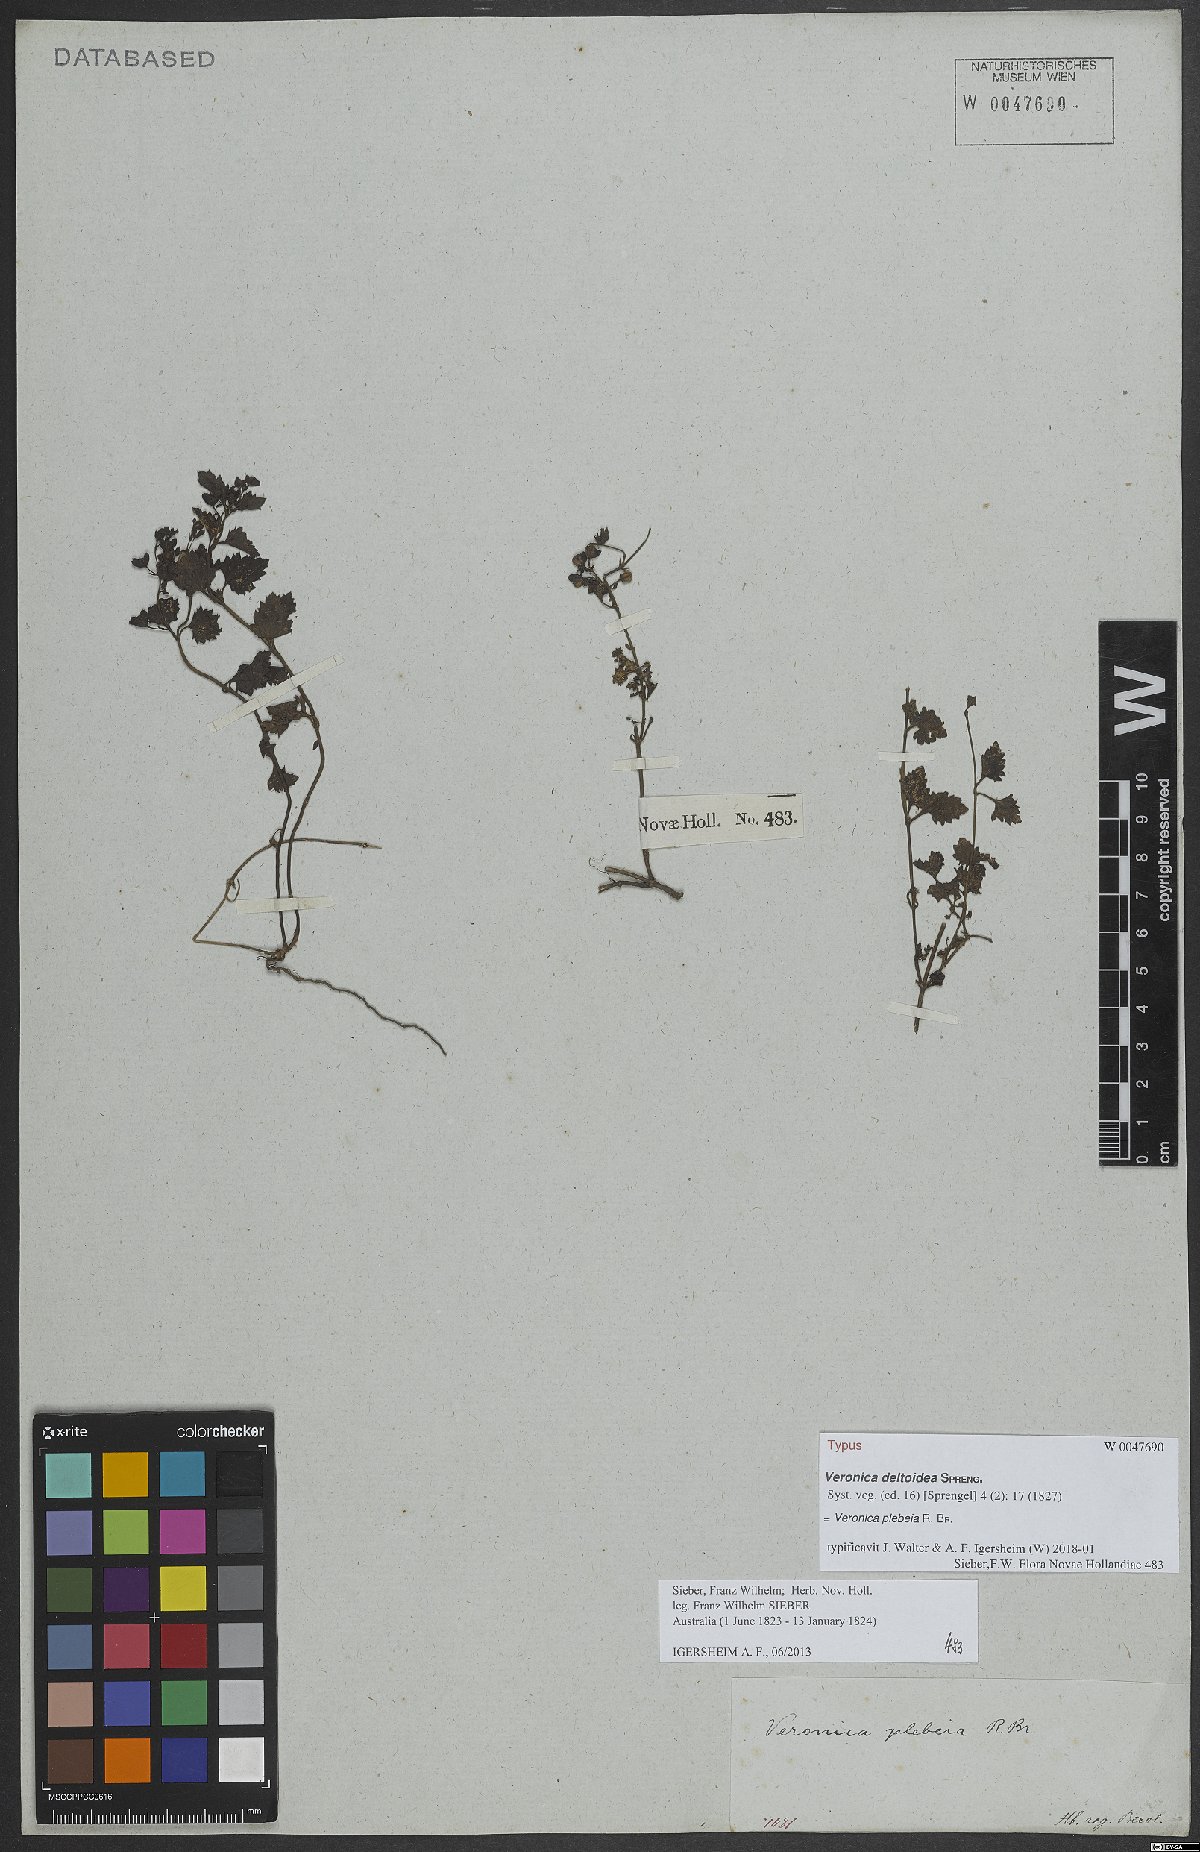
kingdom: Plantae
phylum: Tracheophyta
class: Magnoliopsida
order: Lamiales
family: Plantaginaceae
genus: Veronica
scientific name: Veronica plebeia
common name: Speedwell
